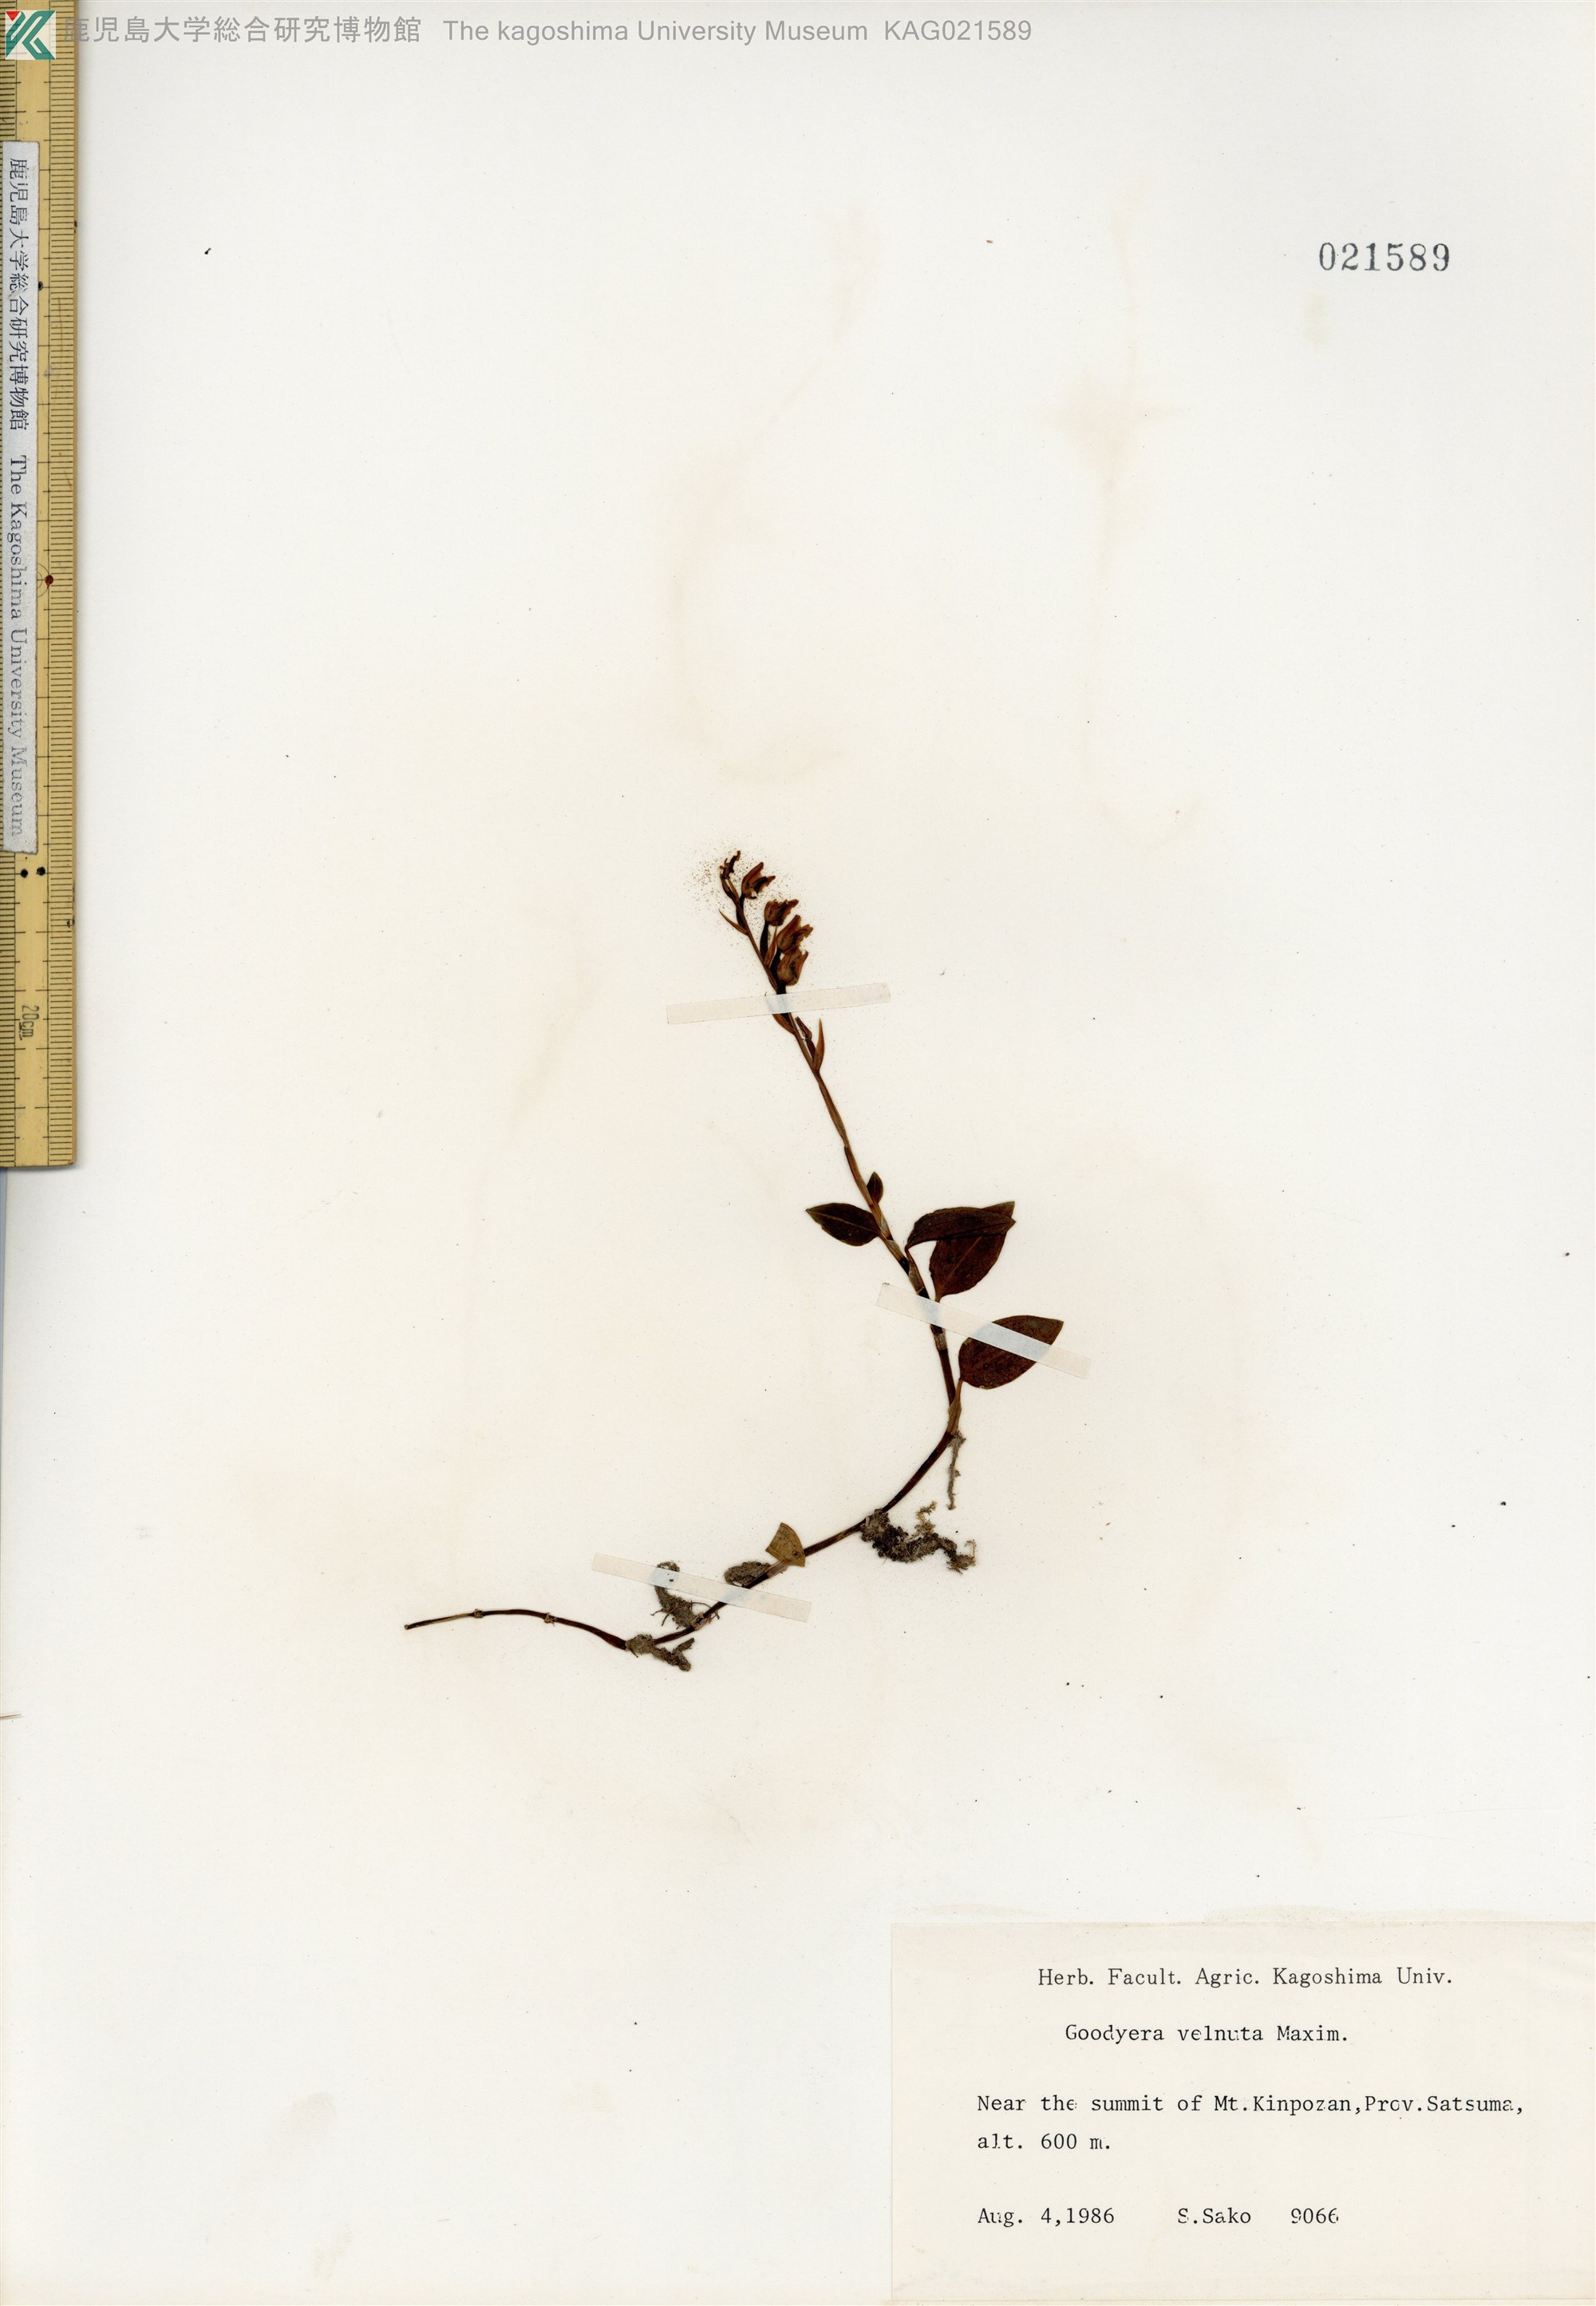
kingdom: Plantae
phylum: Tracheophyta
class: Liliopsida
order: Asparagales
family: Orchidaceae
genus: Goodyera
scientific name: Goodyera velutina
